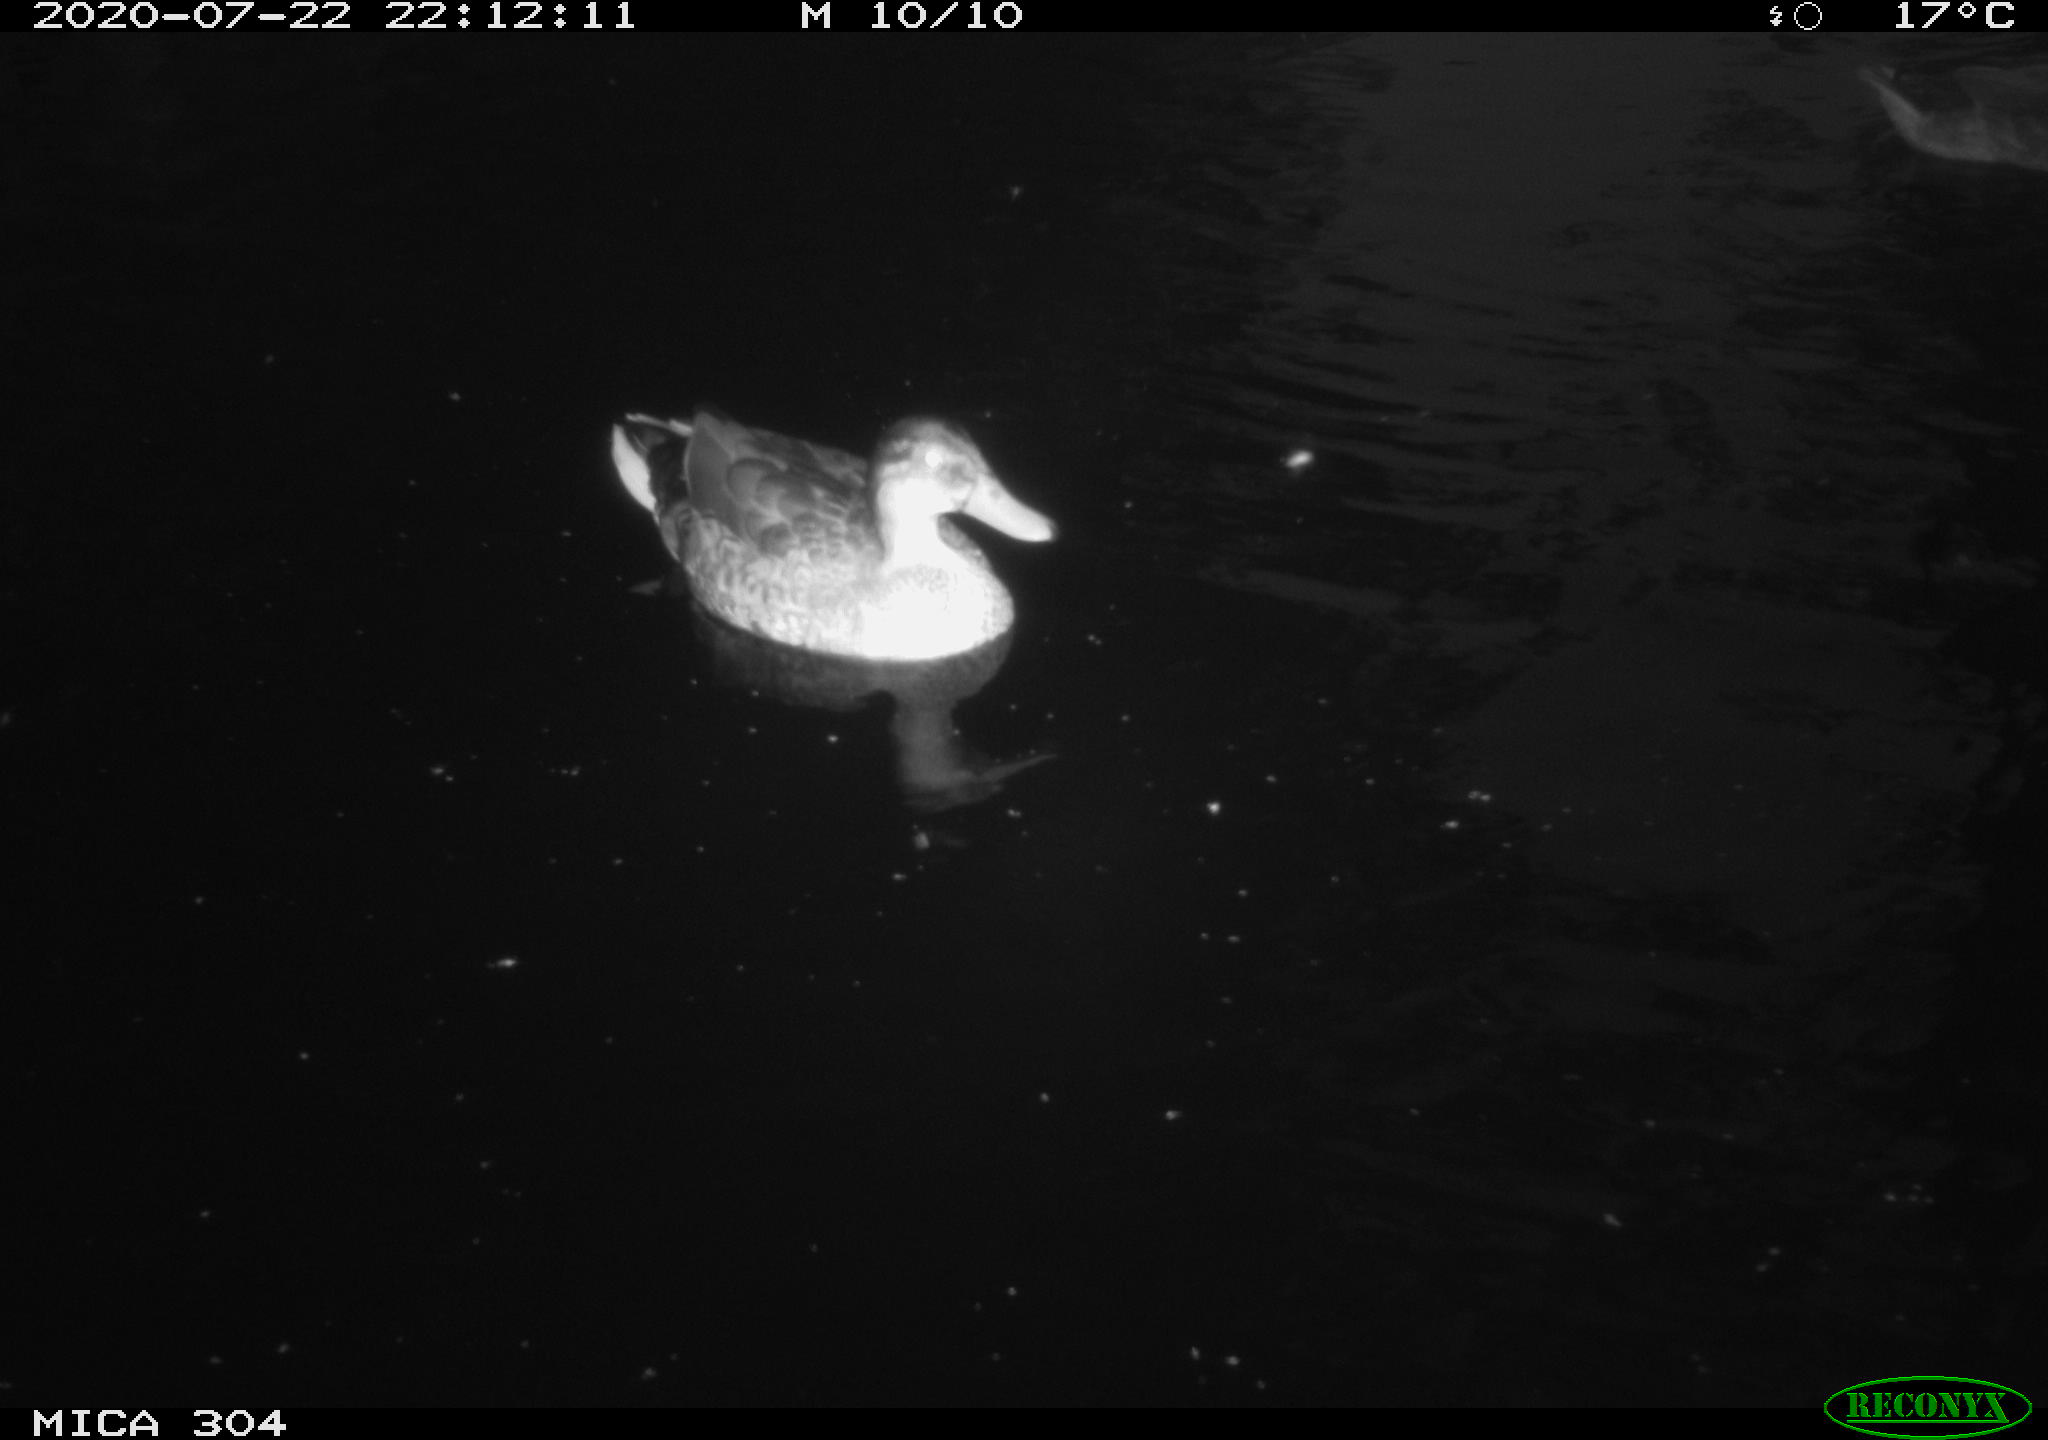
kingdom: Animalia
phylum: Chordata
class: Aves
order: Anseriformes
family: Anatidae
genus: Anas
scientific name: Anas platyrhynchos
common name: Mallard
